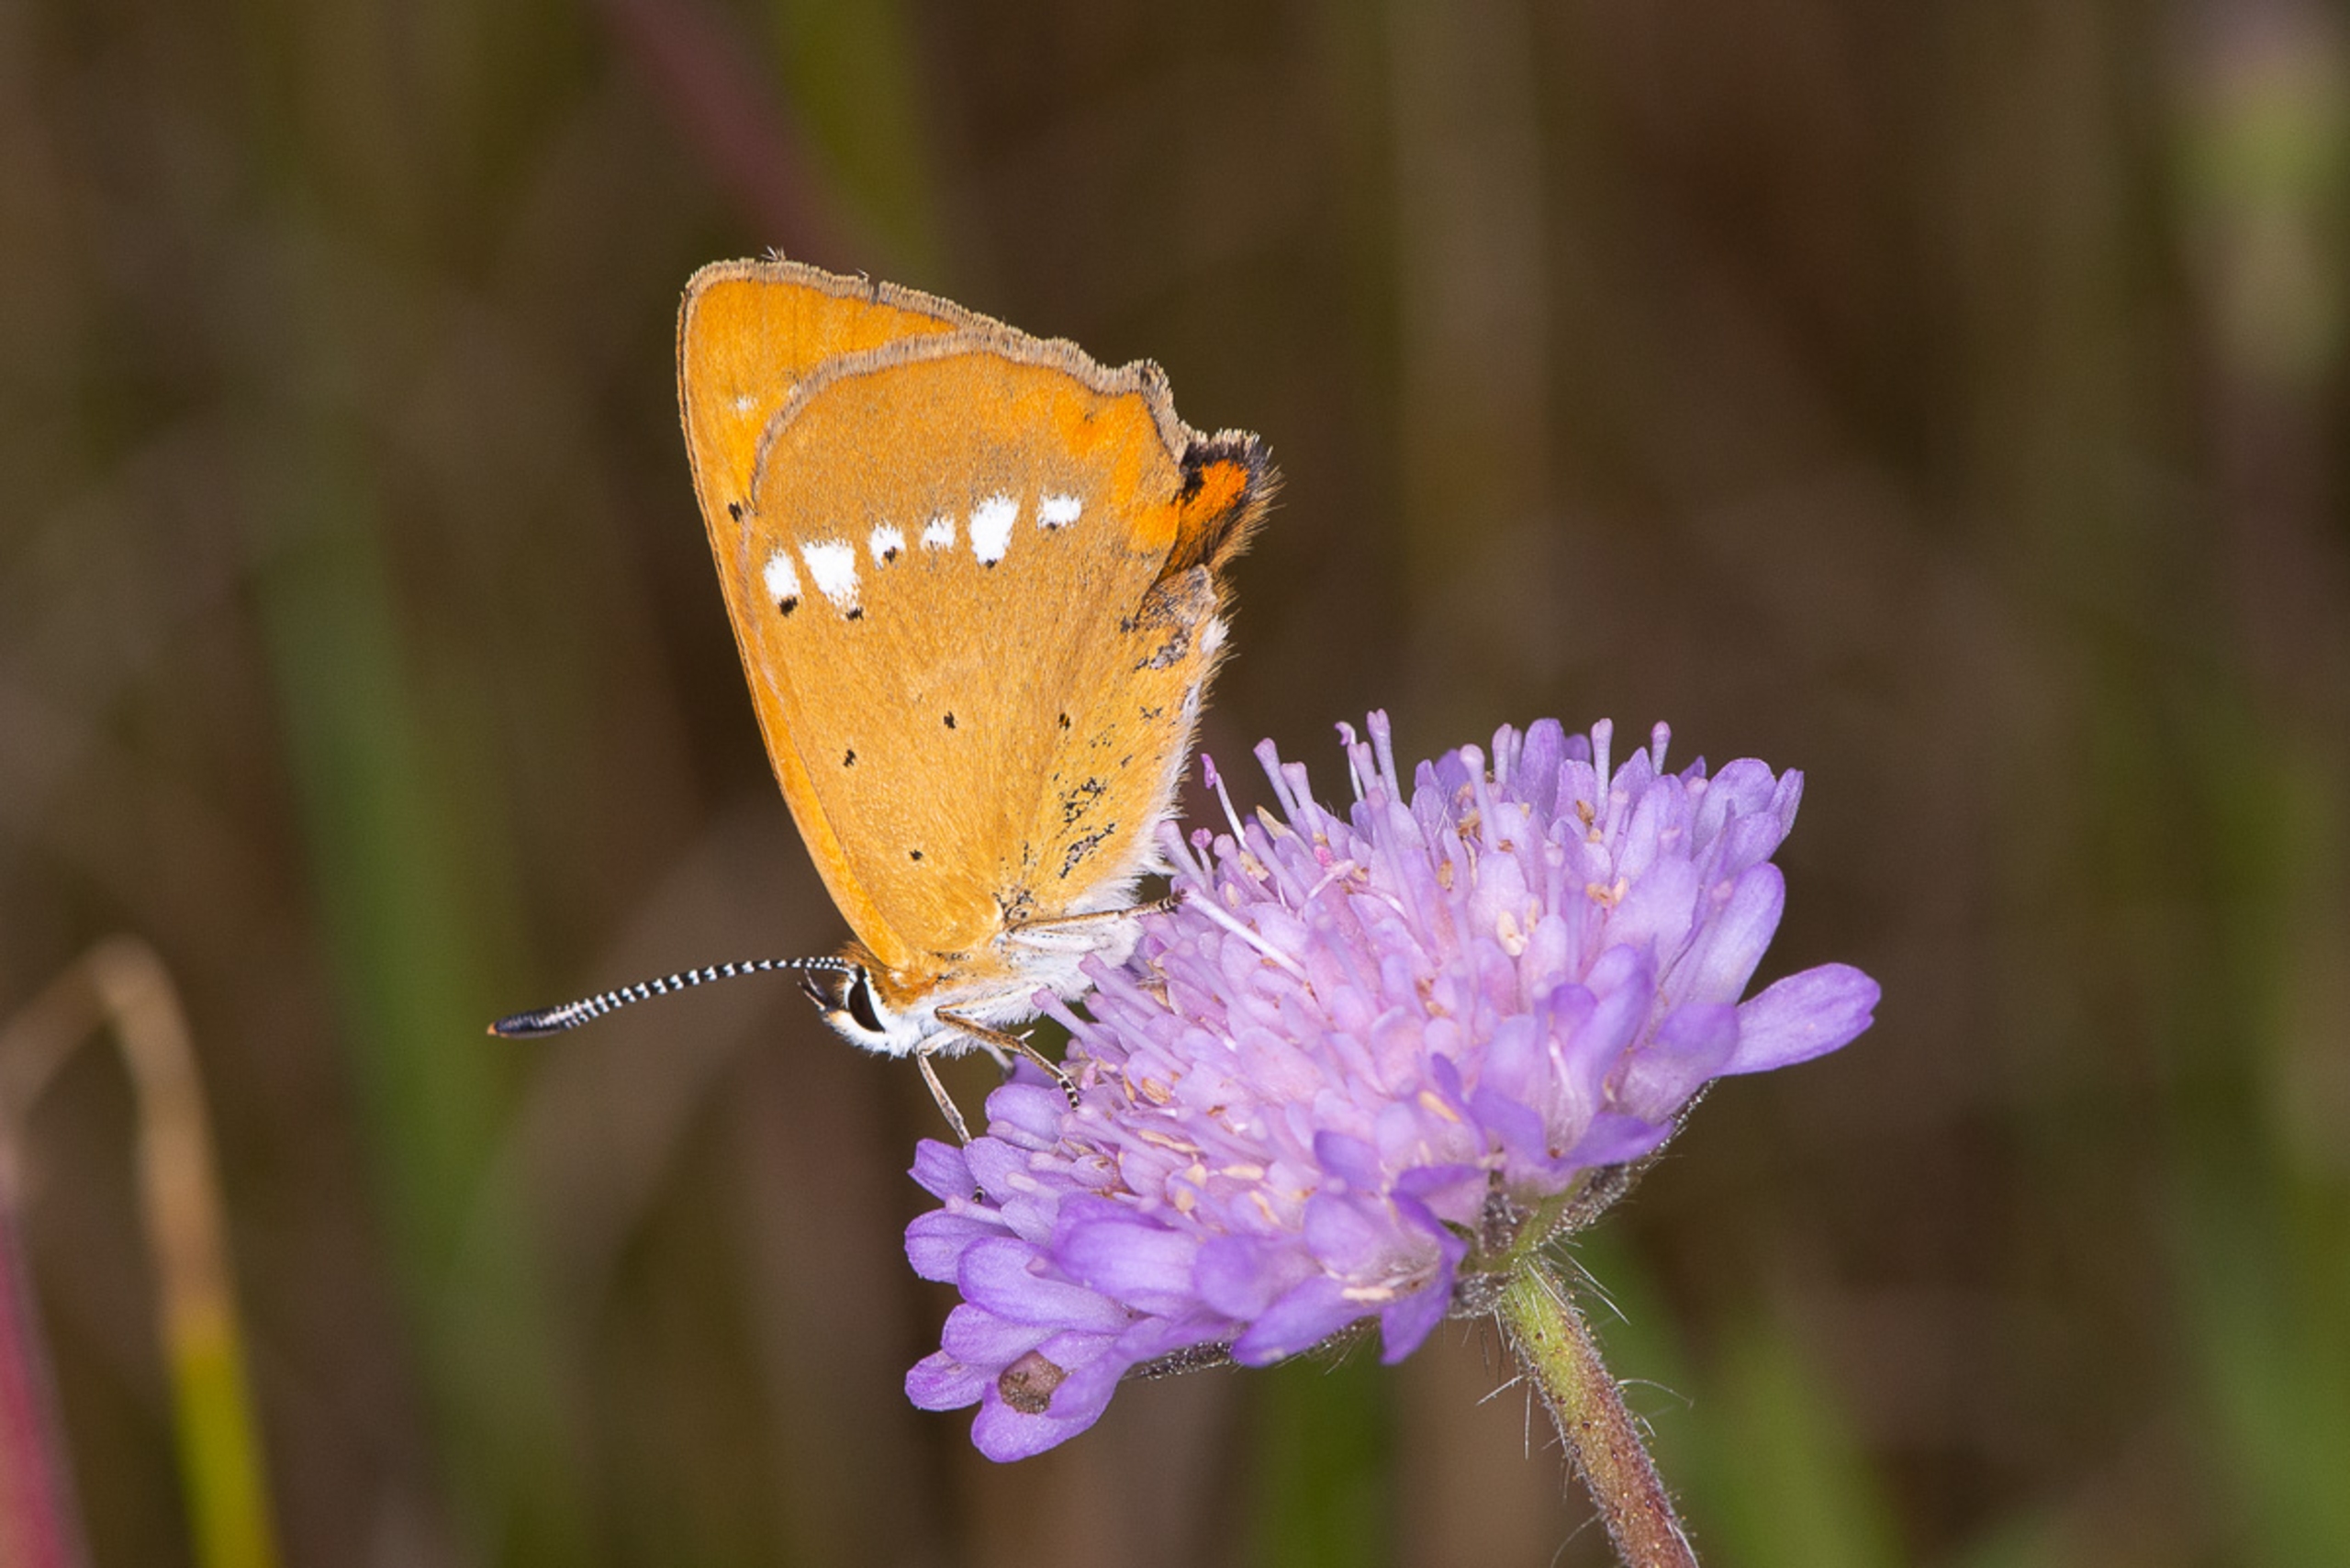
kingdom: Animalia
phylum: Arthropoda
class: Insecta
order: Lepidoptera
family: Lycaenidae
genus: Lycaena
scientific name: Lycaena virgaureae
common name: Dukatsommerfugl
